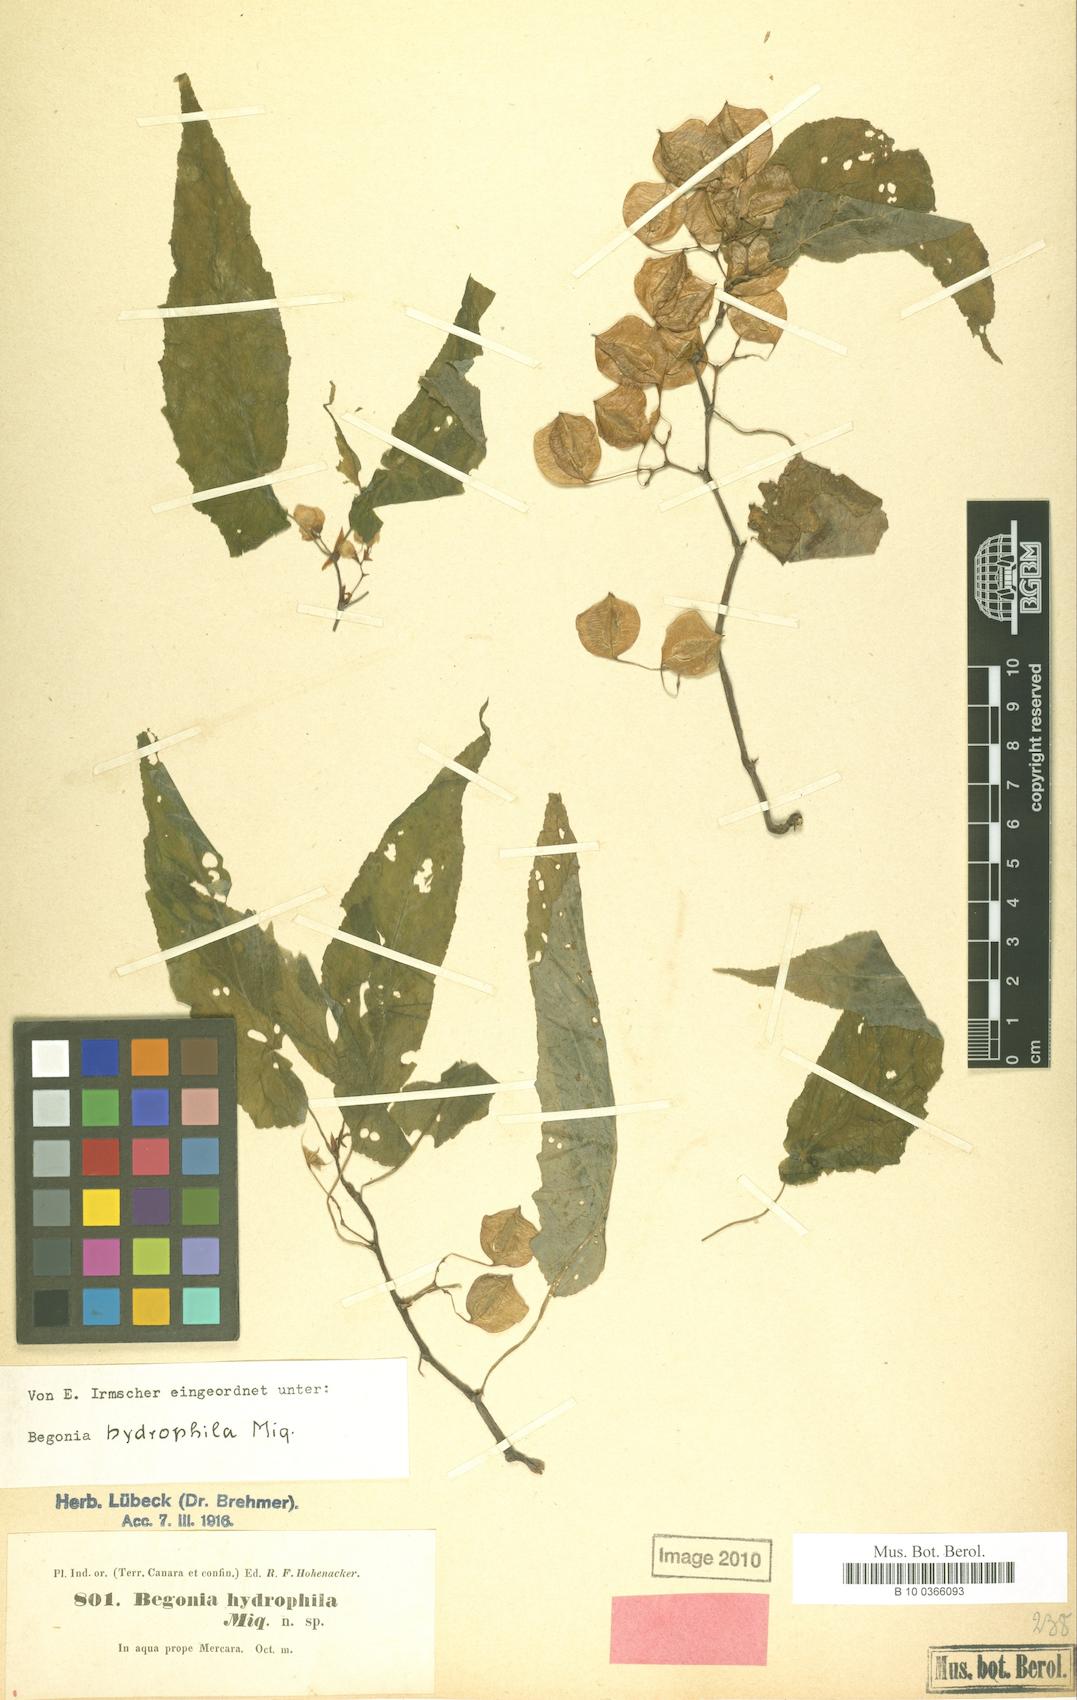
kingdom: Plantae
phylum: Tracheophyta
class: Magnoliopsida
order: Cucurbitales
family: Begoniaceae
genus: Begonia
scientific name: Begonia malabarica
